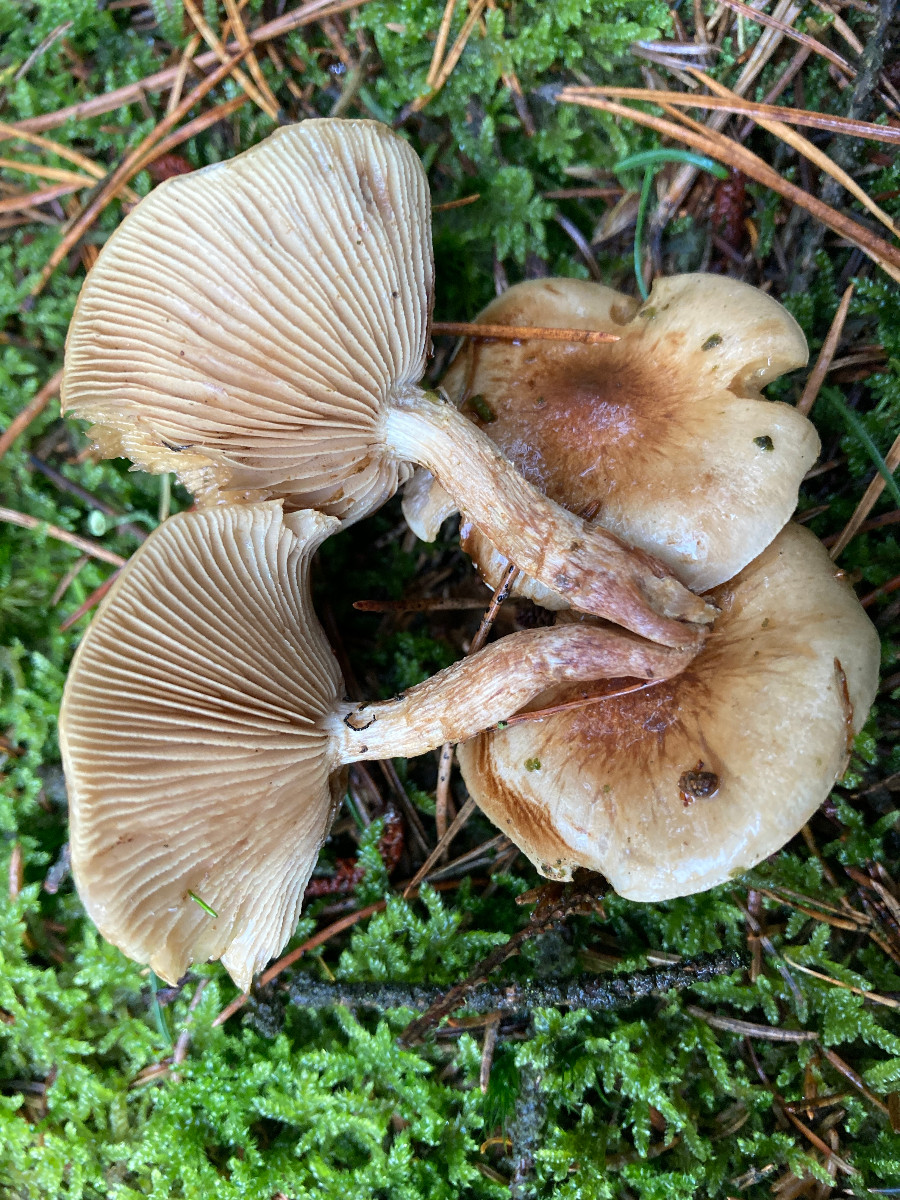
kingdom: Fungi
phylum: Basidiomycota
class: Agaricomycetes
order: Agaricales
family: Strophariaceae
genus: Pholiota
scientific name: Pholiota lenta
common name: løv-skælhat
